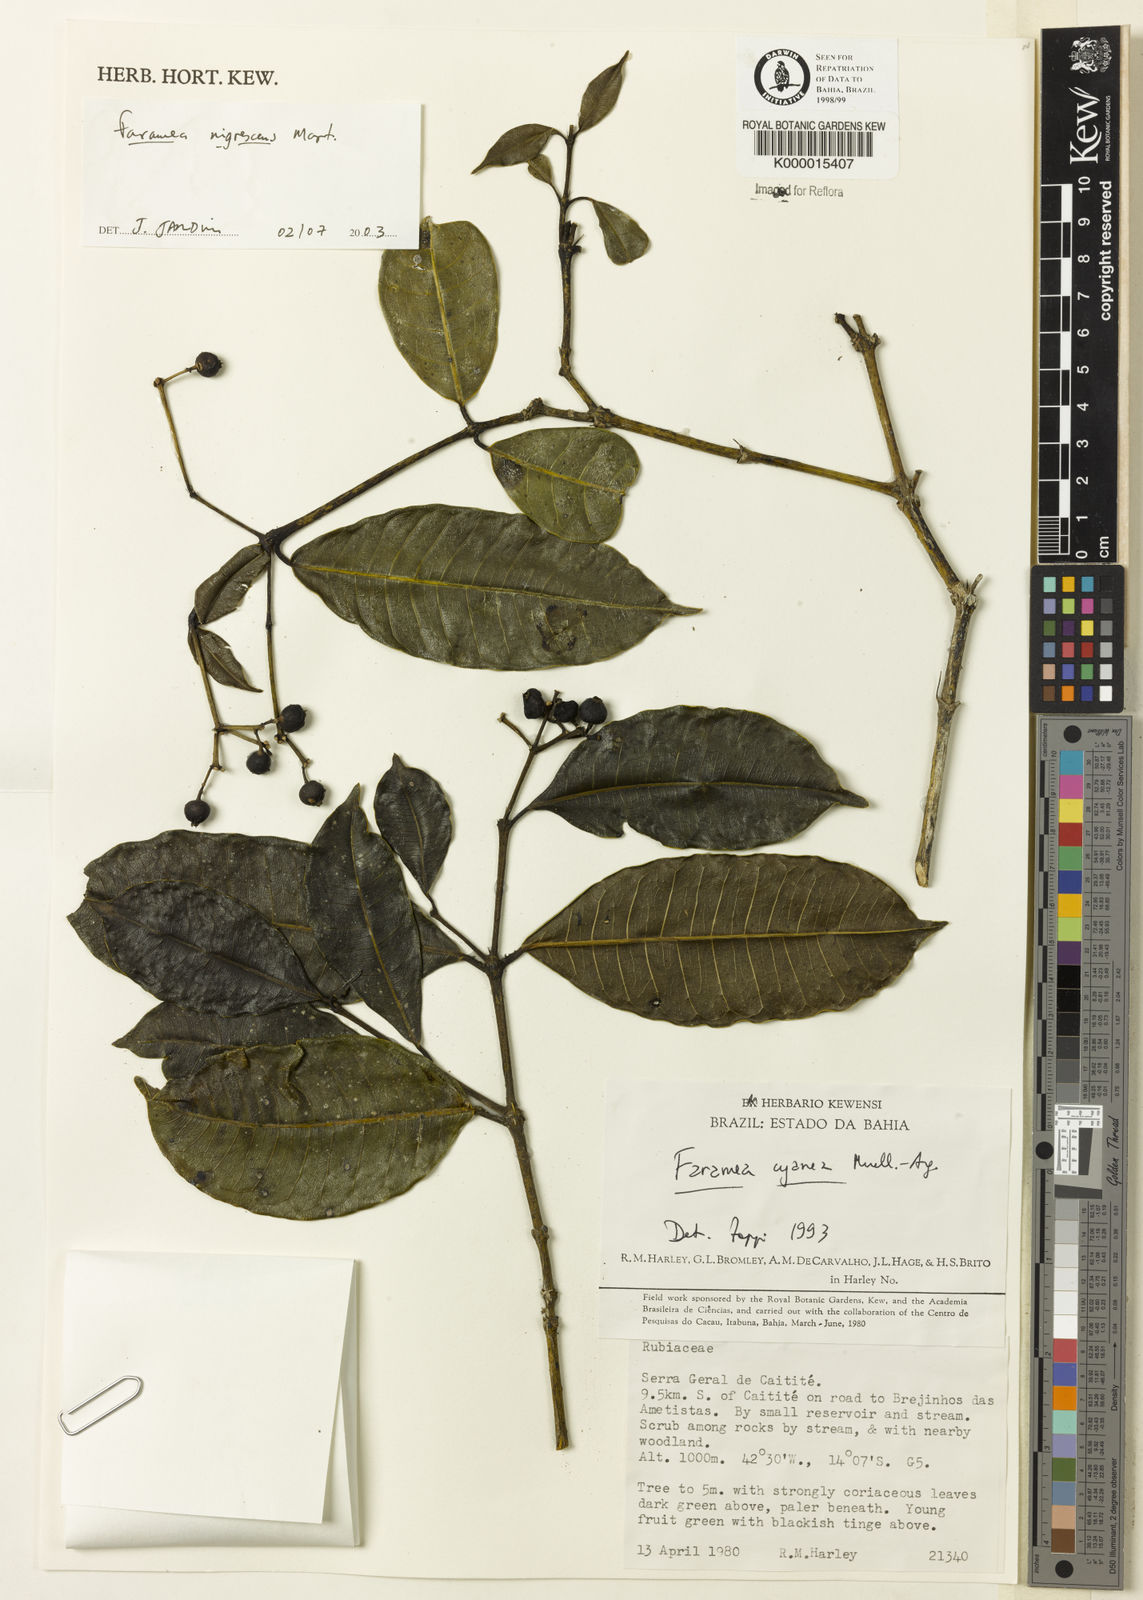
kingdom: Plantae
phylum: Tracheophyta
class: Magnoliopsida
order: Gentianales
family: Rubiaceae
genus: Faramea
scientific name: Faramea nigrescens
